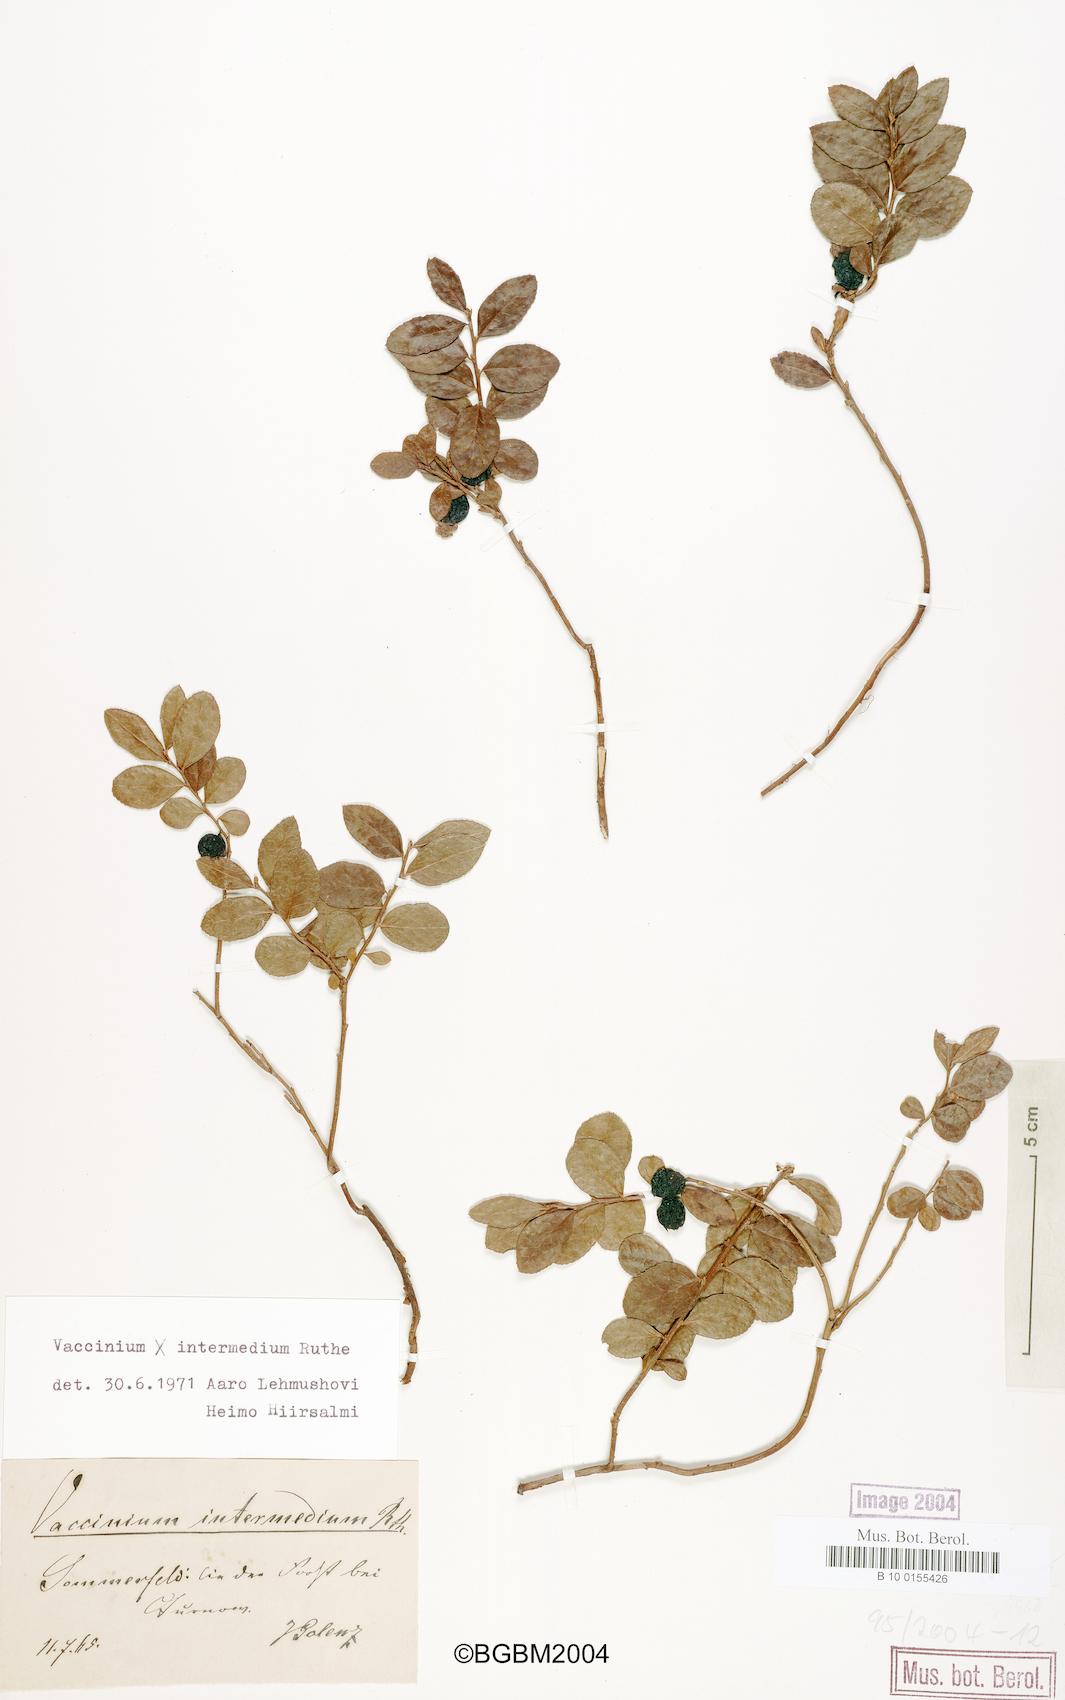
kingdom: Plantae
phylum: Tracheophyta
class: Magnoliopsida
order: Ericales
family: Ericaceae
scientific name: Ericaceae
